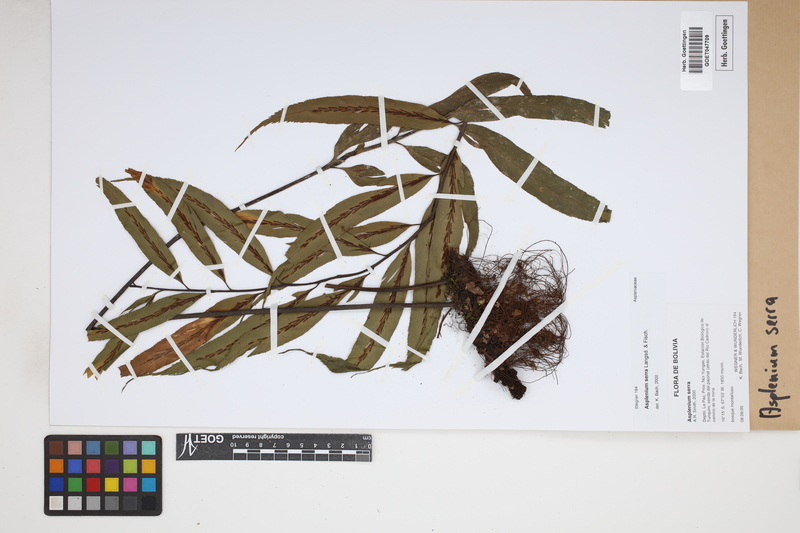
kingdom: Plantae
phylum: Tracheophyta
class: Polypodiopsida
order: Polypodiales
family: Aspleniaceae
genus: Asplenium
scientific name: Asplenium serra
